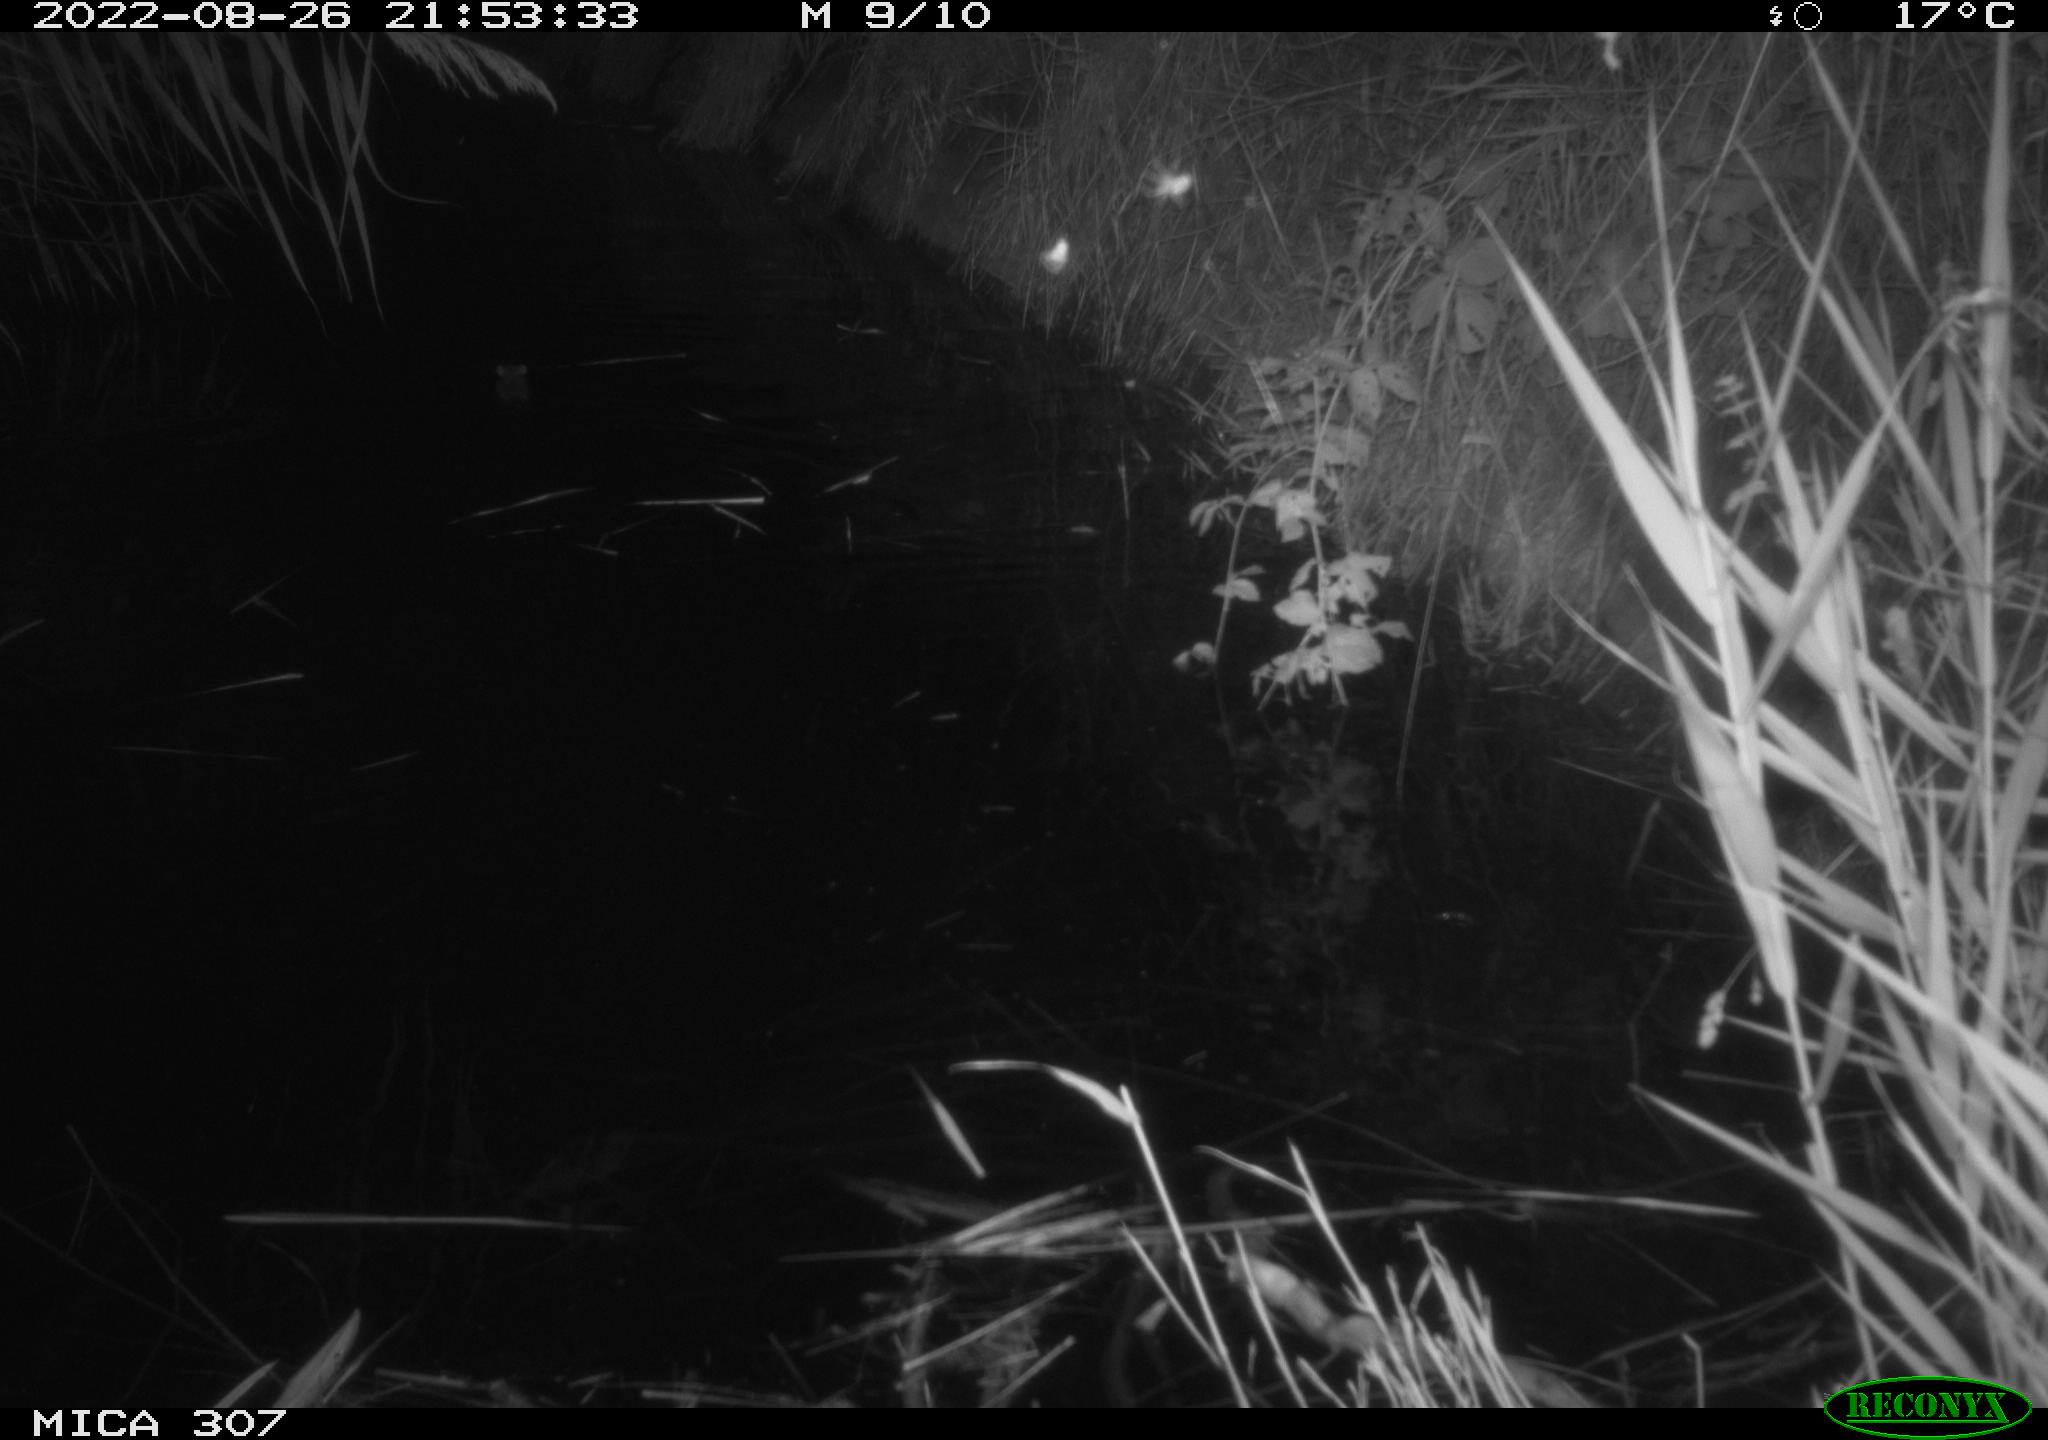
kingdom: Animalia
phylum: Chordata
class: Mammalia
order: Rodentia
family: Muridae
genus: Rattus
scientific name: Rattus norvegicus
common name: Brown rat
